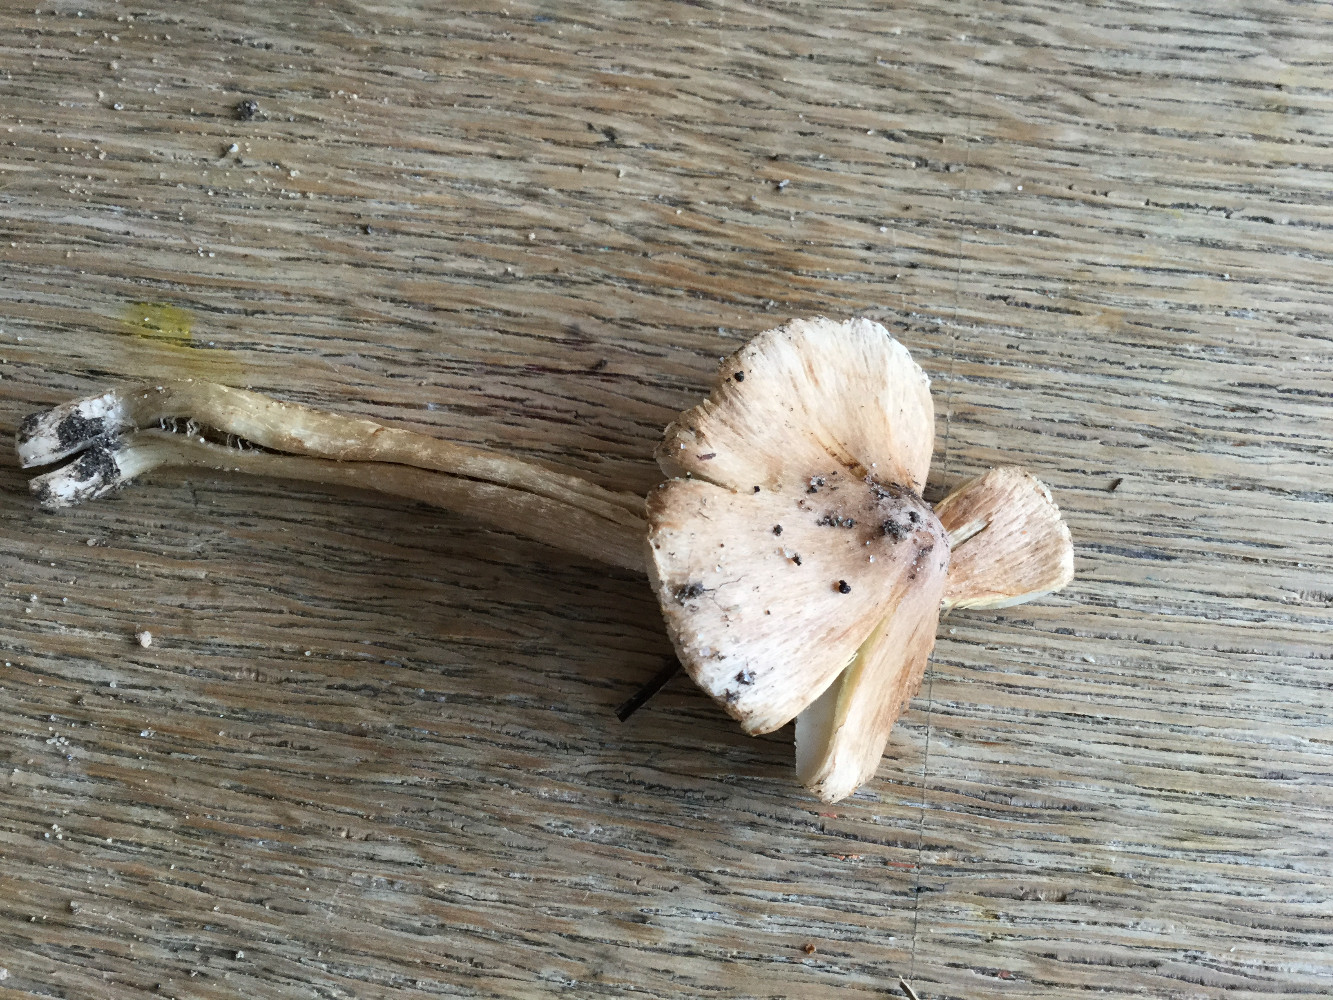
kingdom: Fungi
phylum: Basidiomycota
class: Agaricomycetes
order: Agaricales
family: Inocybaceae
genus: Pseudosperma
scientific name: Pseudosperma
